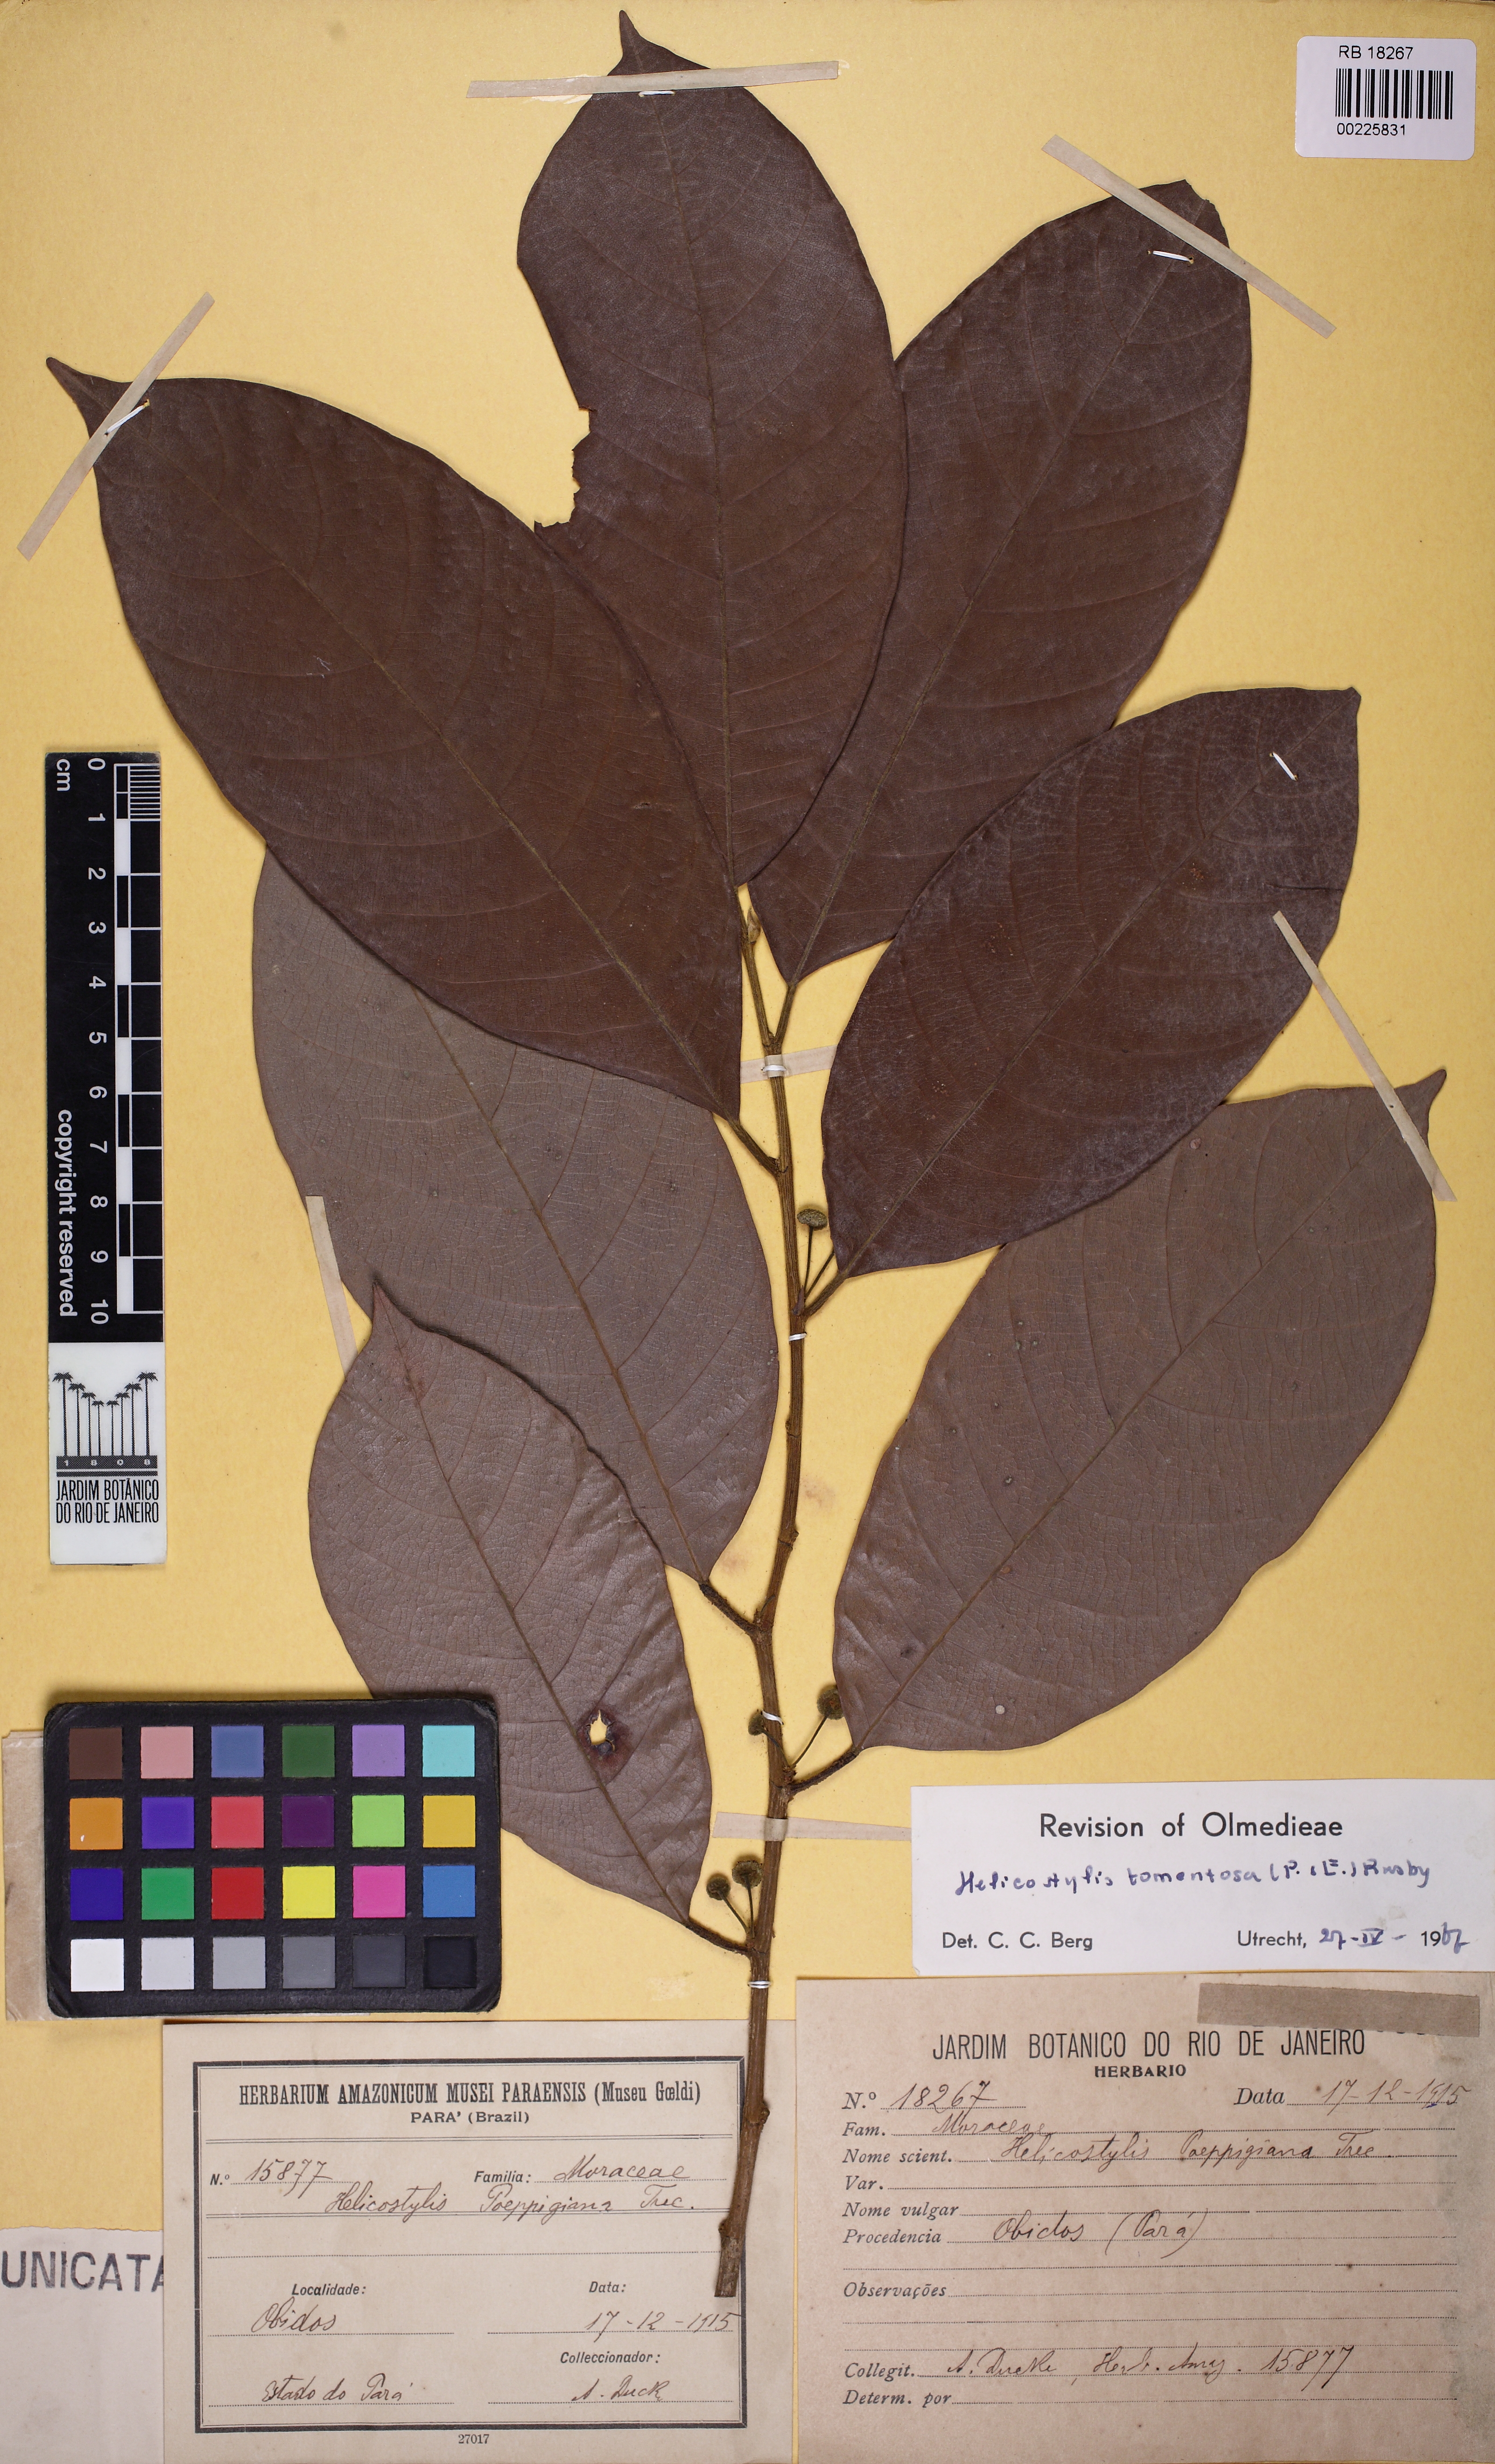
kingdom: Plantae
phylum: Tracheophyta
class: Magnoliopsida
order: Rosales
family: Moraceae
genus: Helicostylis
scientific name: Helicostylis tomentosa
